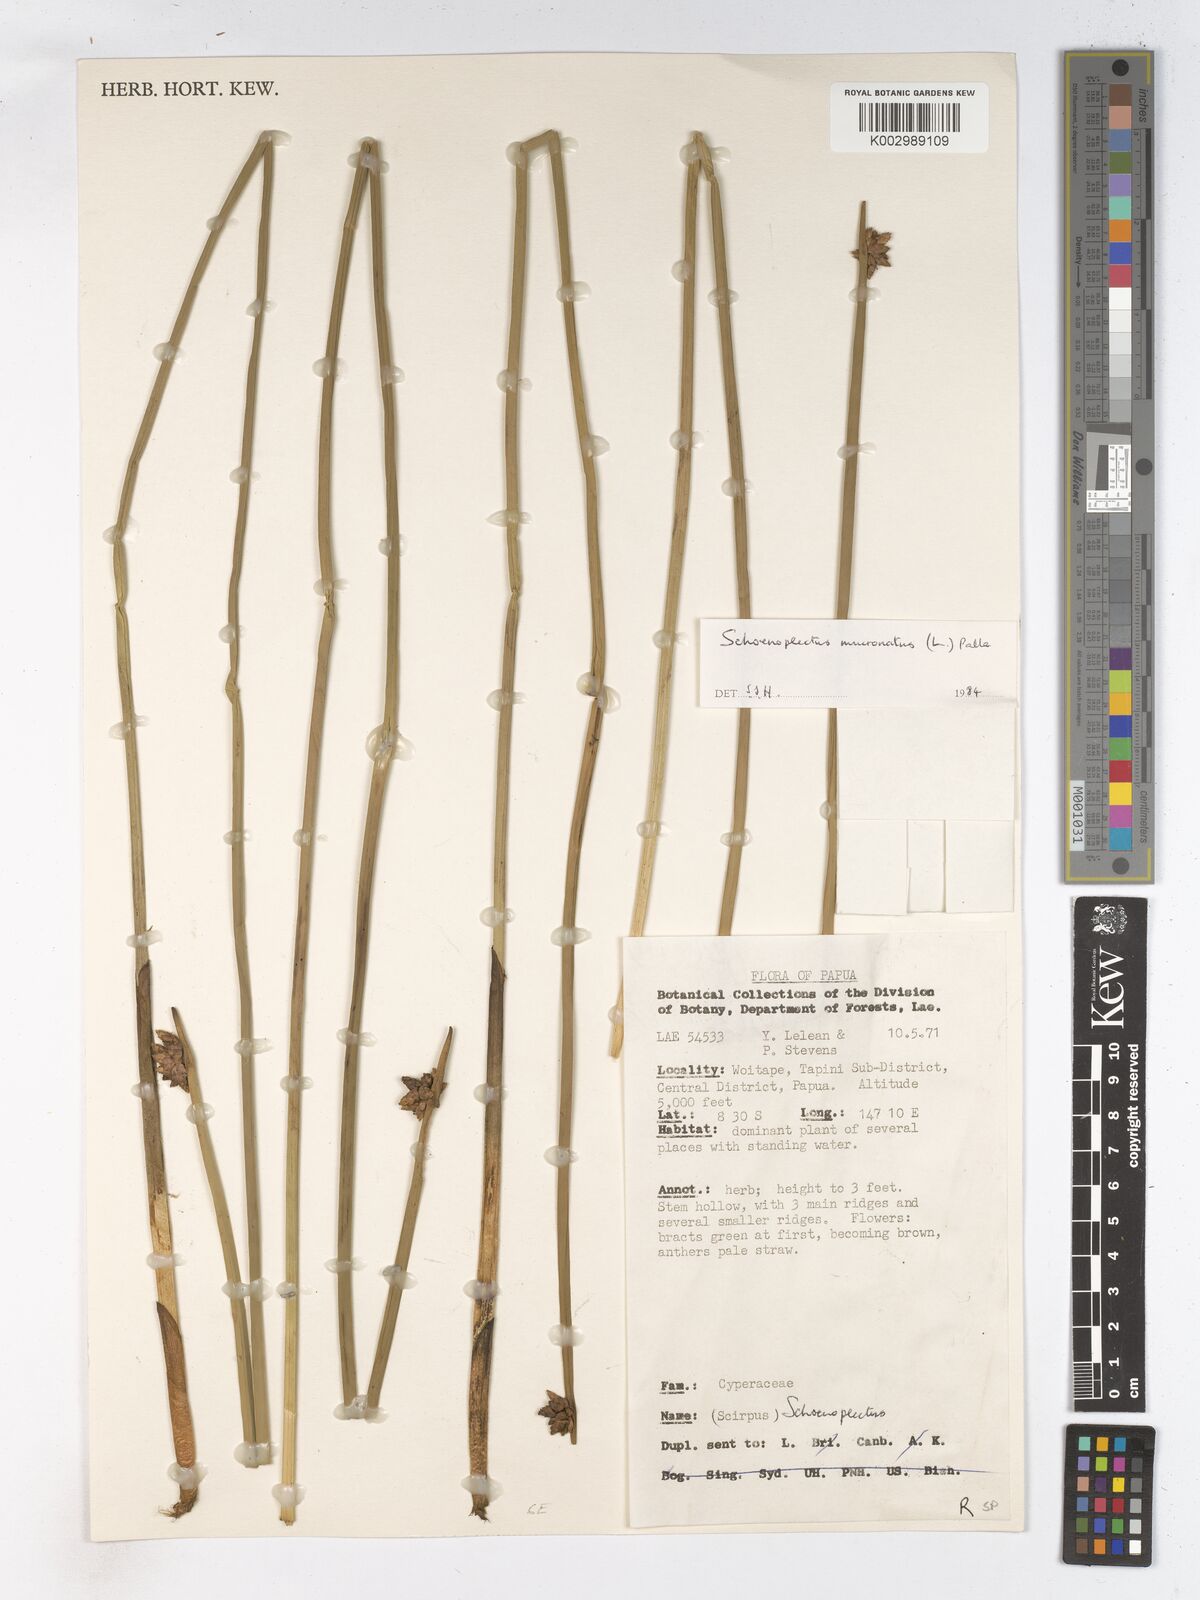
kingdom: Plantae
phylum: Tracheophyta
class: Liliopsida
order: Poales
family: Cyperaceae
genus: Schoenoplectiella
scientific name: Schoenoplectiella mucronata
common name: Bog bulrush
